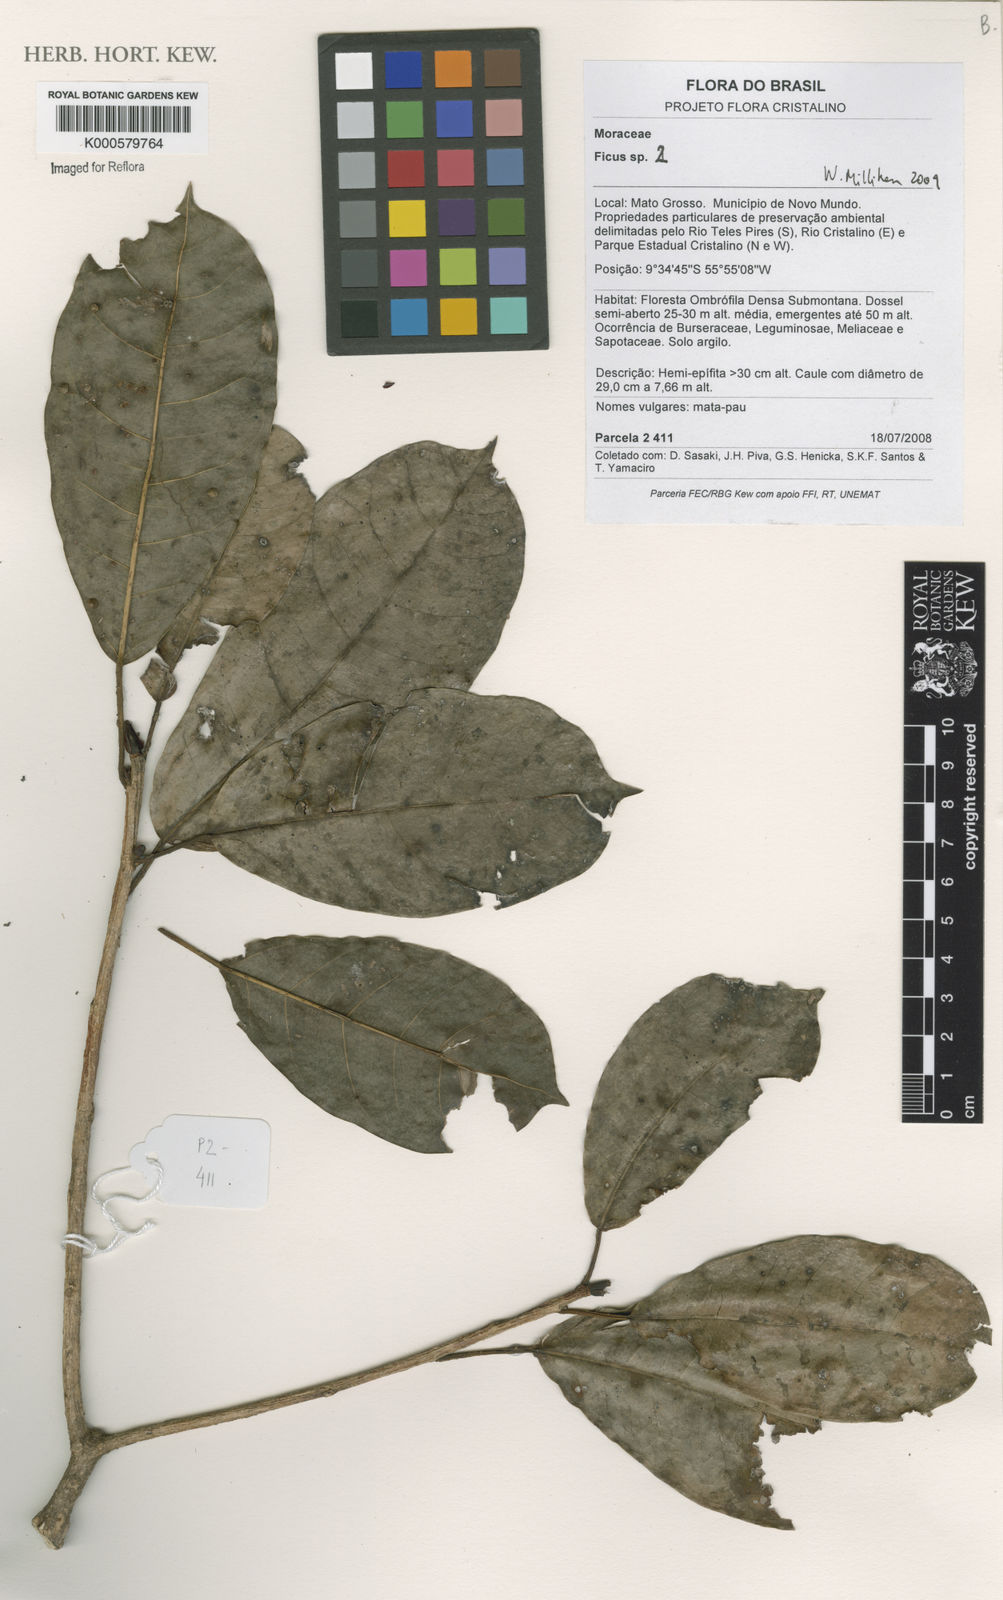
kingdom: Plantae
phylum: Tracheophyta
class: Magnoliopsida
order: Rosales
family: Moraceae
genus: Ficus
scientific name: Ficus
